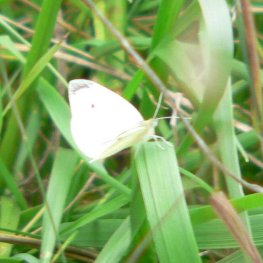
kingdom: Animalia
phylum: Arthropoda
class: Insecta
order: Lepidoptera
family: Pieridae
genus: Pieris
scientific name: Pieris rapae
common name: Cabbage White
